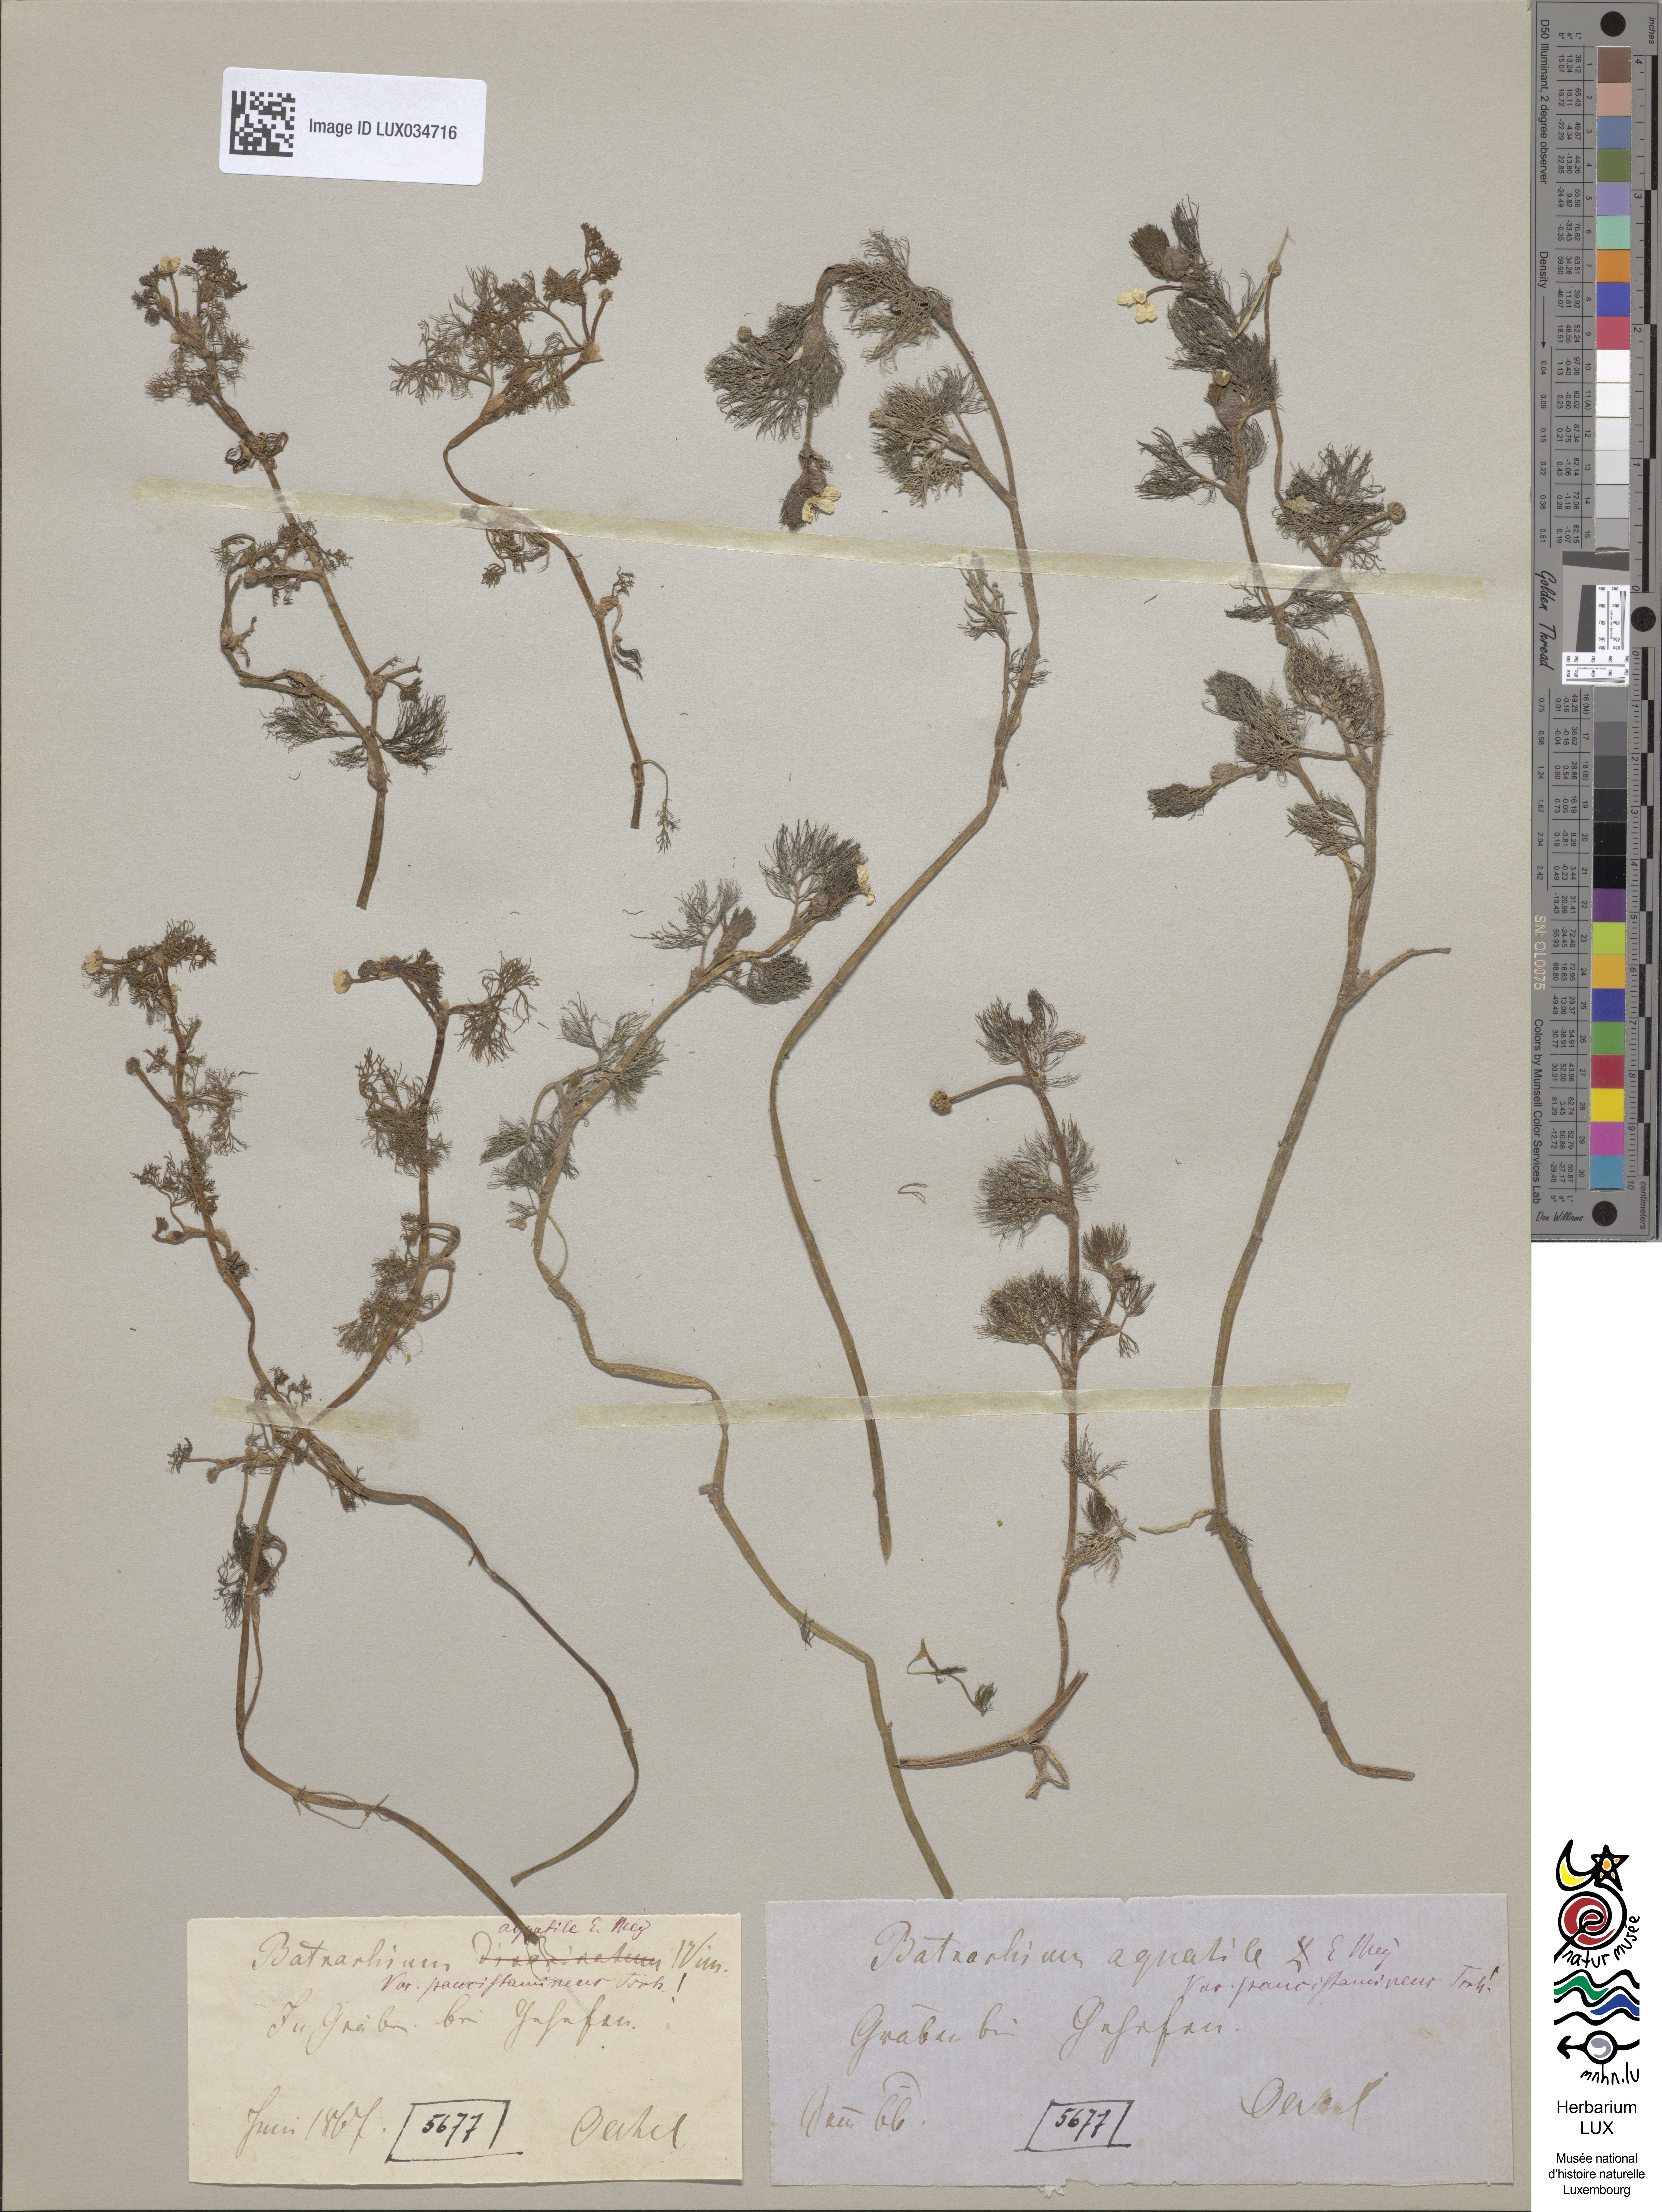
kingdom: Plantae
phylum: Tracheophyta
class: Magnoliopsida
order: Ranunculales
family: Ranunculaceae
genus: Ranunculus
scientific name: Ranunculus
